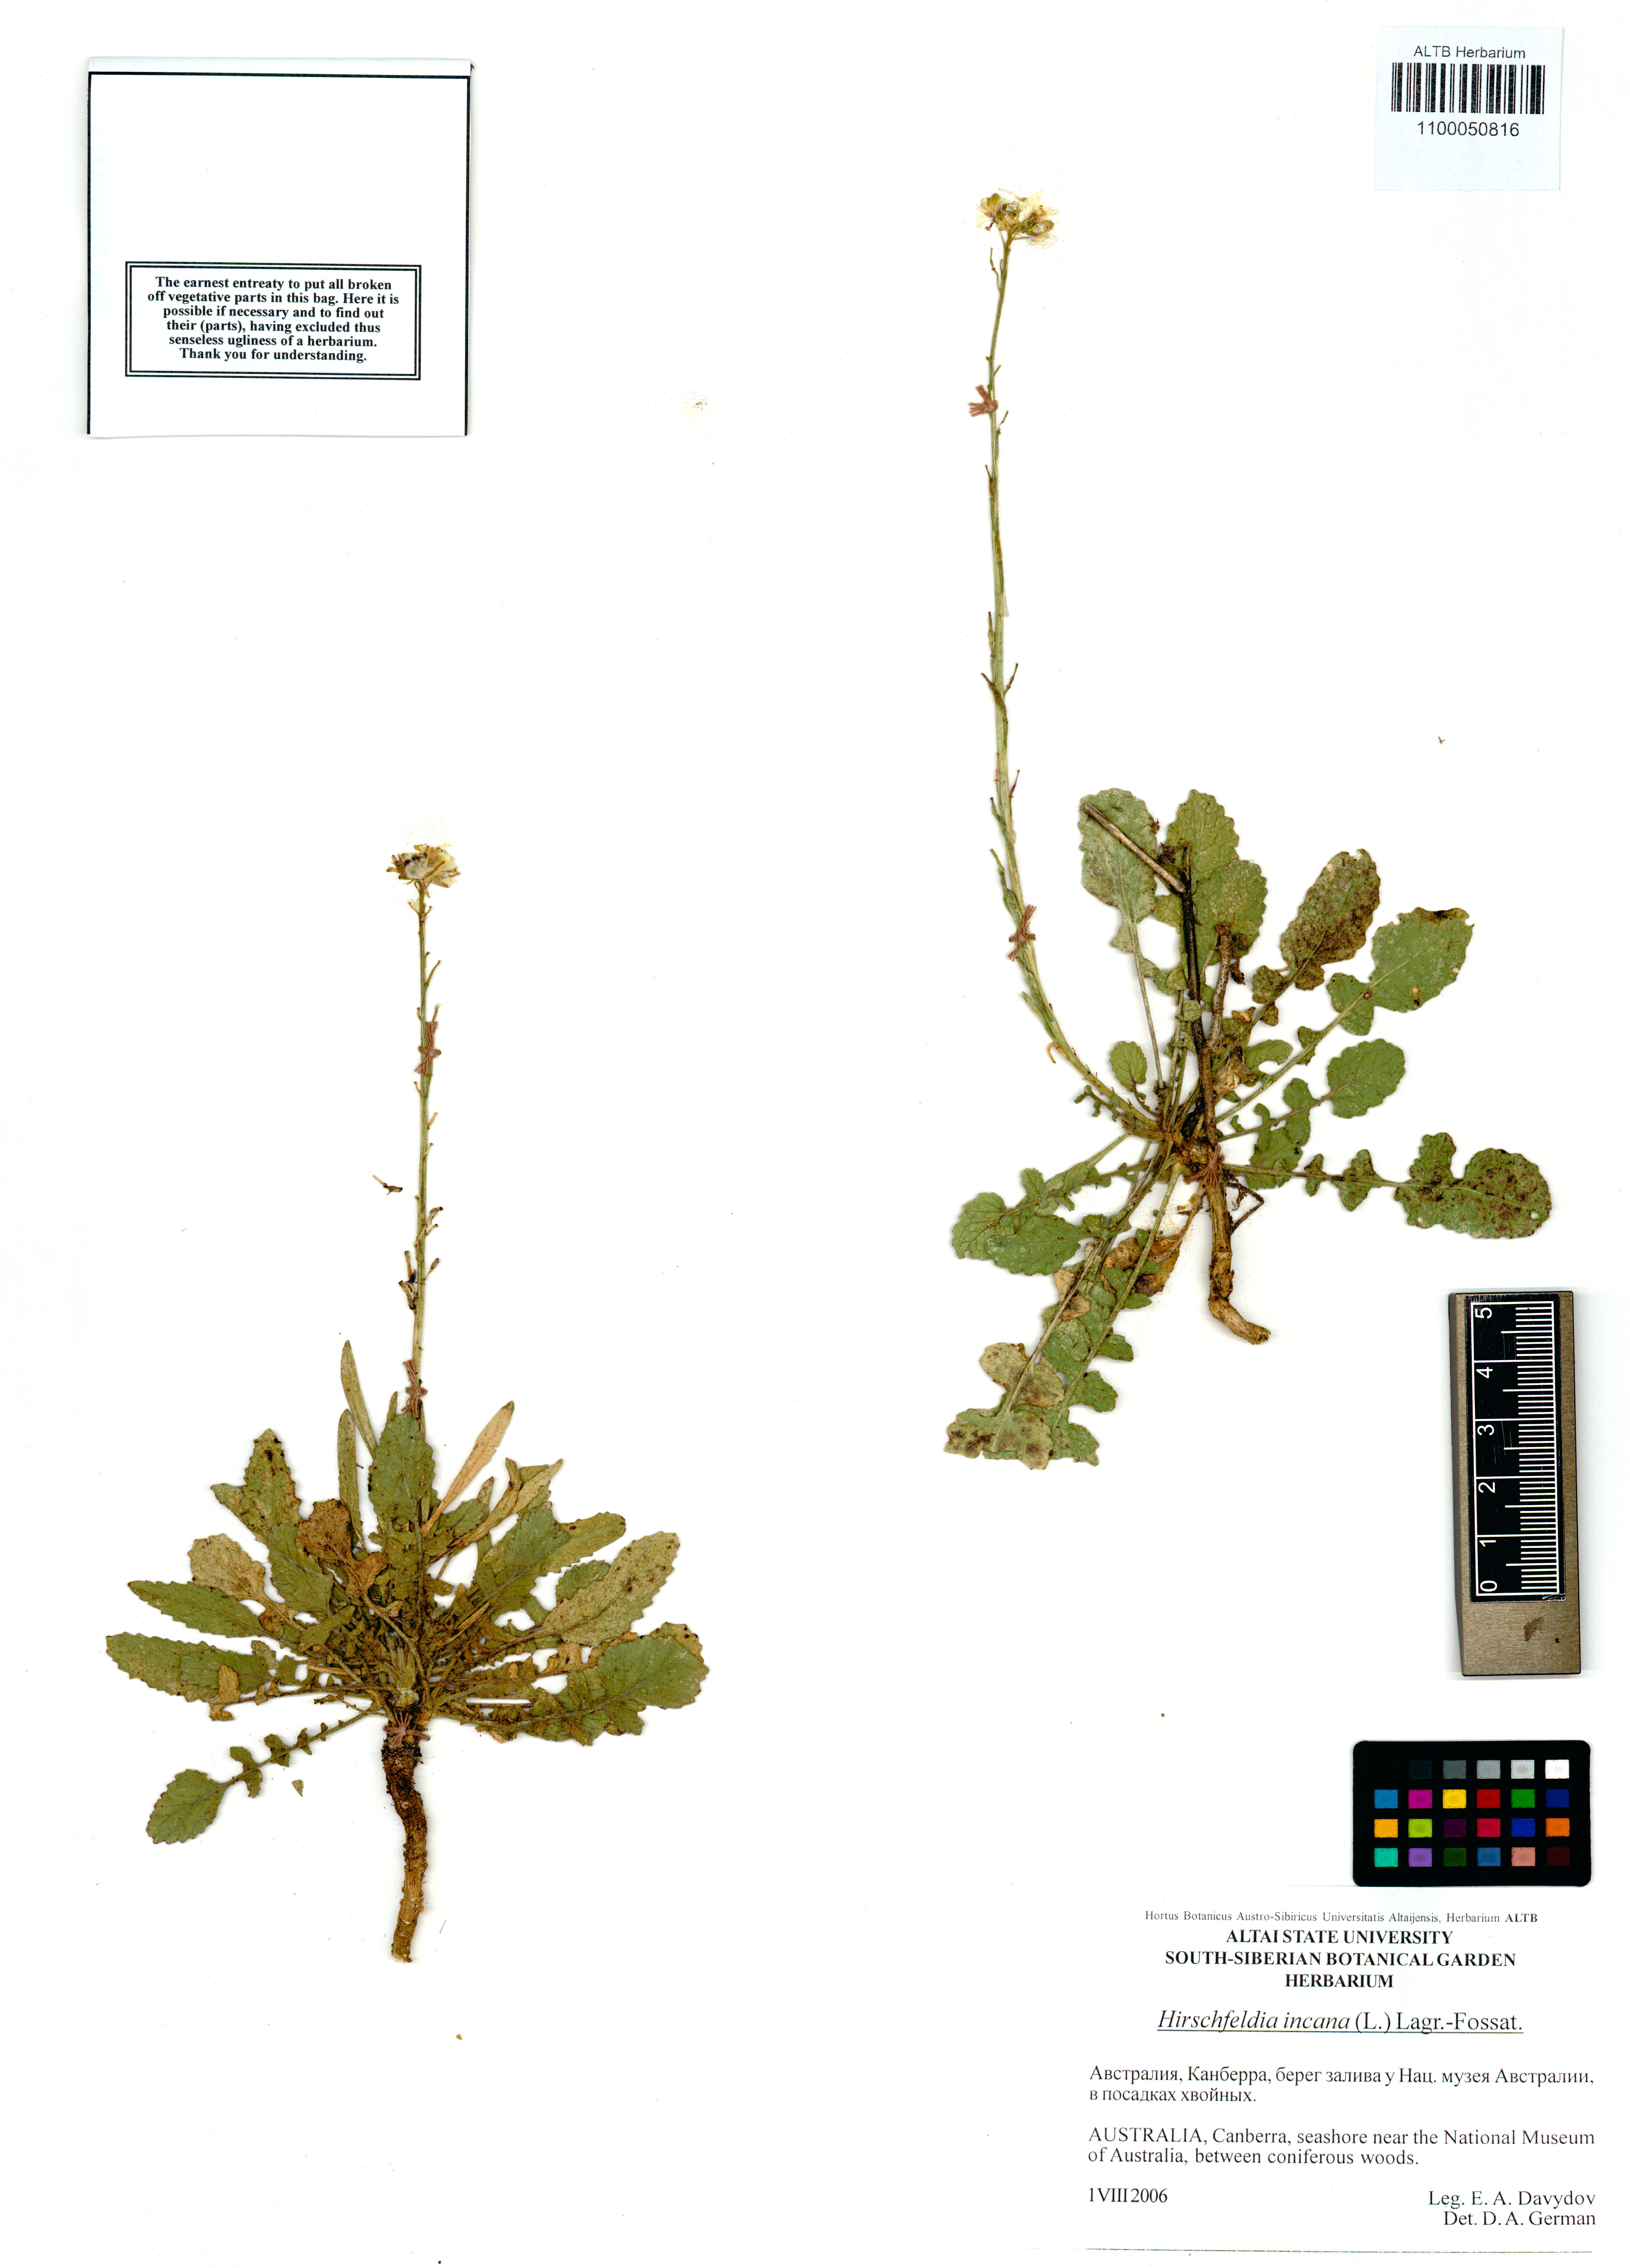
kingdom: Plantae
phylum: Tracheophyta
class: Magnoliopsida
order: Brassicales
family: Brassicaceae
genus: Hirschfeldia
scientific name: Hirschfeldia incana
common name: Hoary mustard
